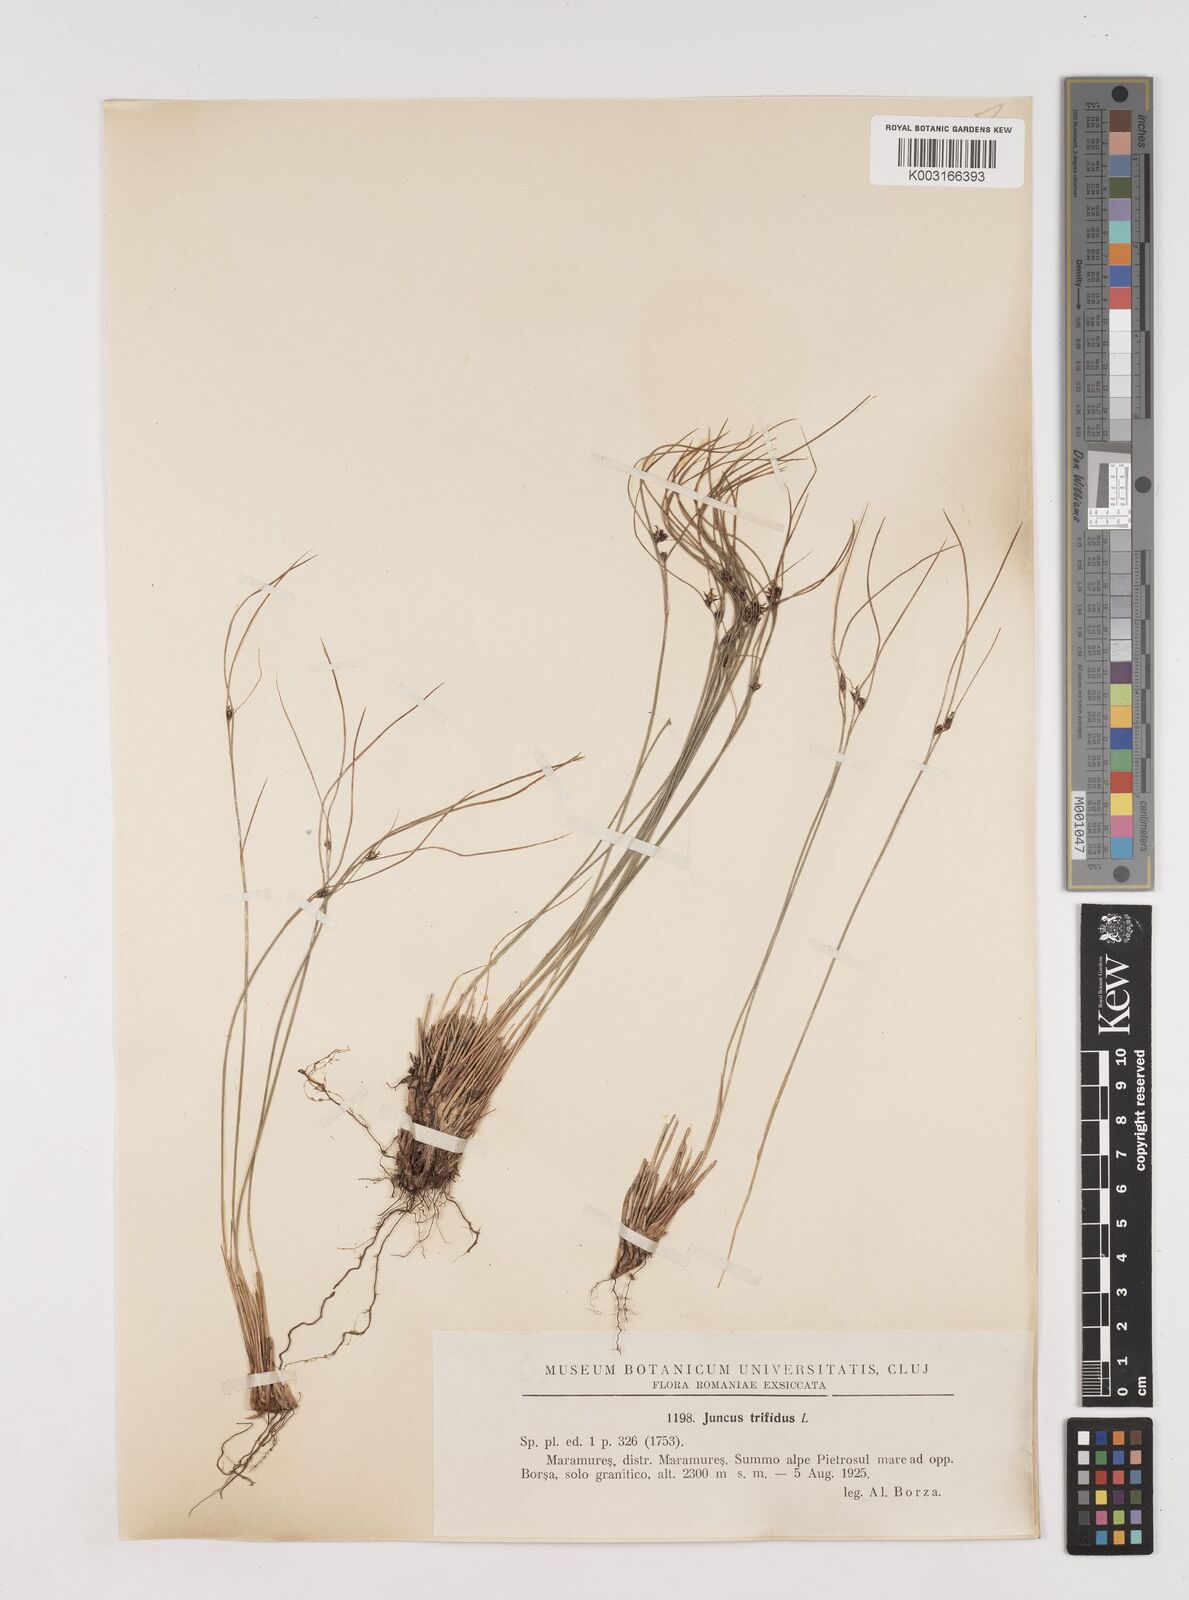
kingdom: Plantae
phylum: Tracheophyta
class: Liliopsida
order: Poales
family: Juncaceae
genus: Oreojuncus
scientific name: Oreojuncus trifidus
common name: Highland rush
